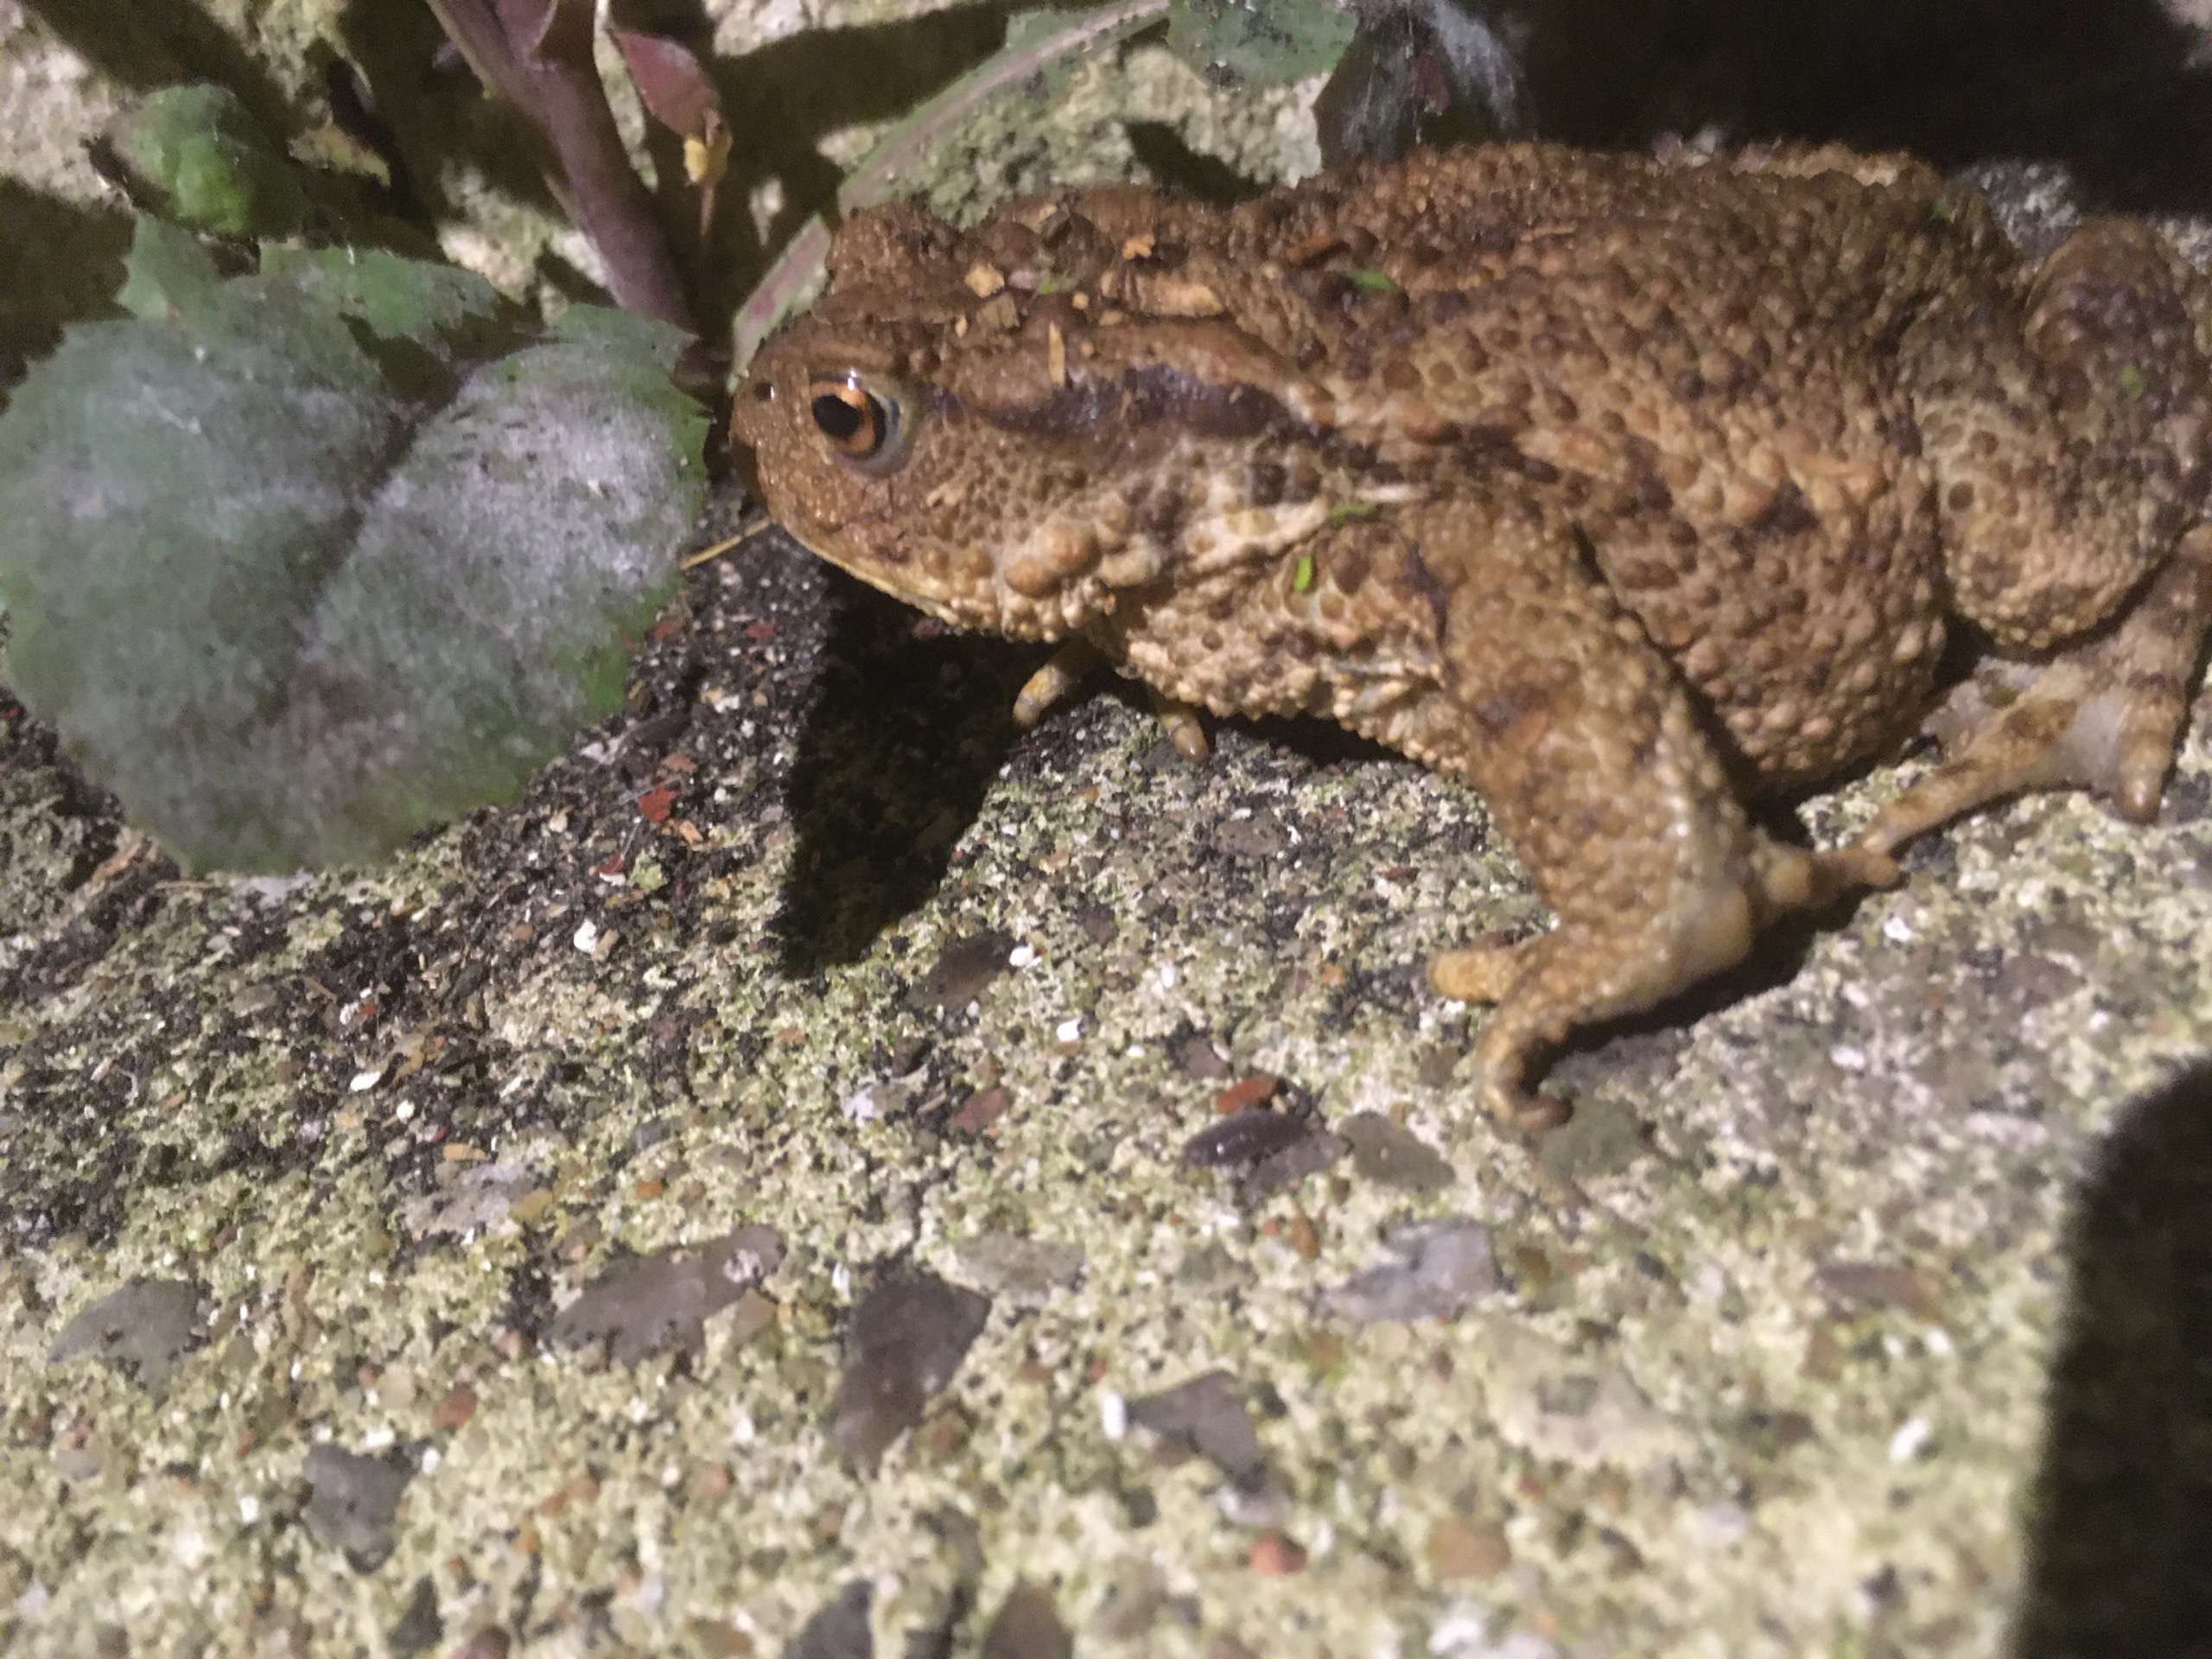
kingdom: Animalia
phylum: Chordata
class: Amphibia
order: Anura
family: Bufonidae
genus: Bufo
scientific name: Bufo bufo
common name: Skrubtudse
